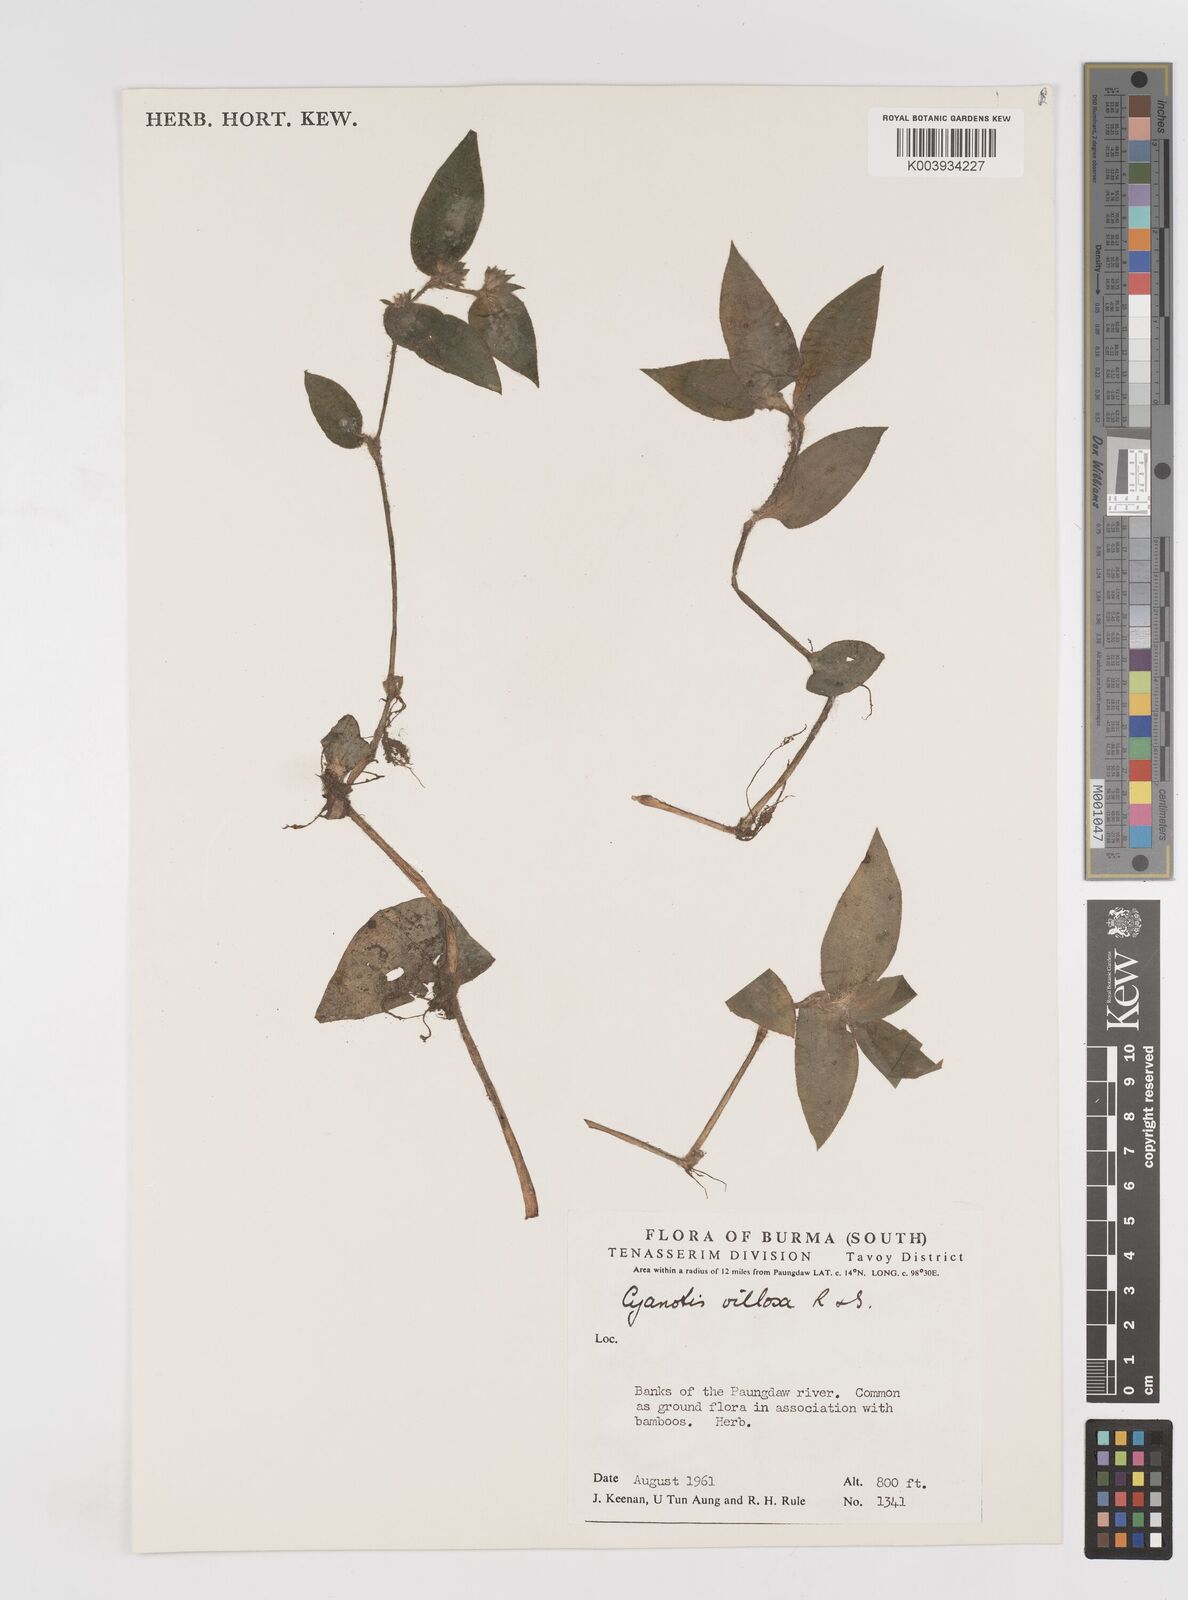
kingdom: Plantae
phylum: Tracheophyta
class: Liliopsida
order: Commelinales
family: Commelinaceae
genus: Cyanotis
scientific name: Cyanotis
